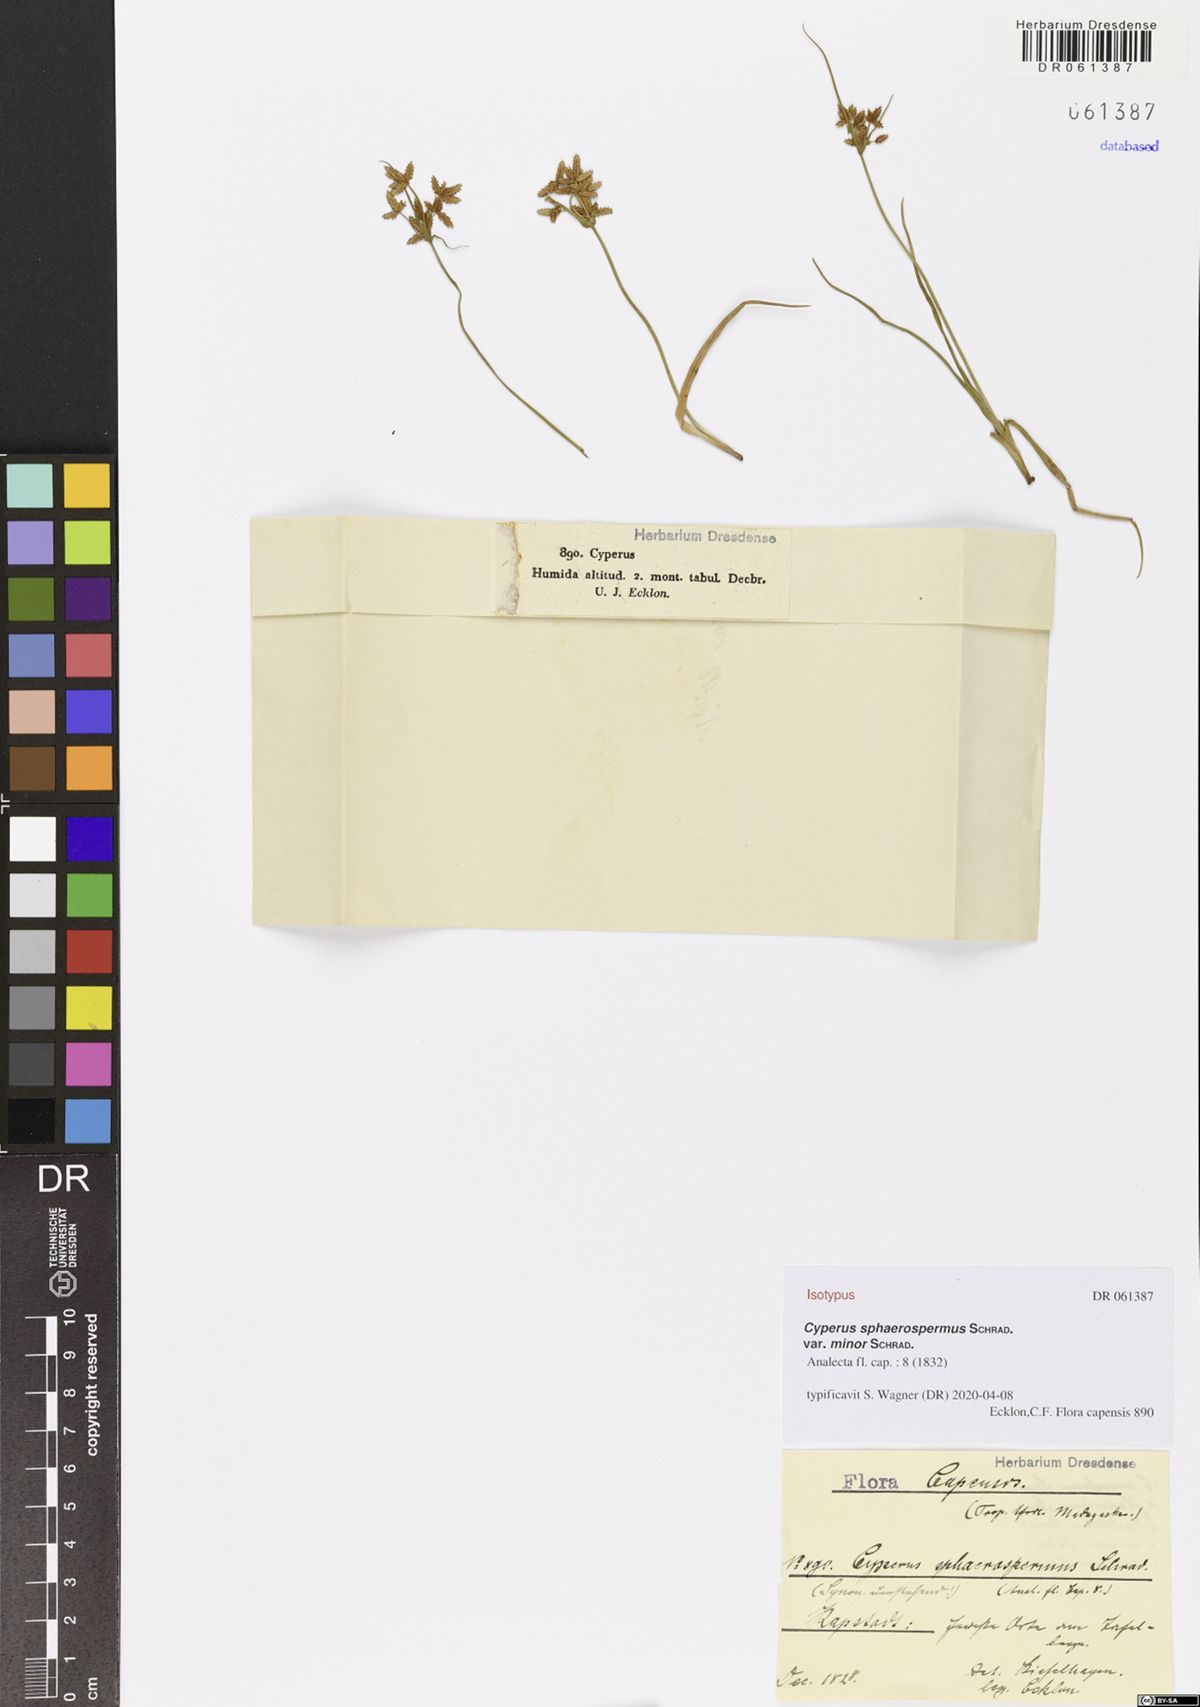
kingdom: Plantae
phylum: Tracheophyta
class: Liliopsida
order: Poales
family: Cyperaceae
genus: Cyperus
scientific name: Cyperus sphaerospermus
